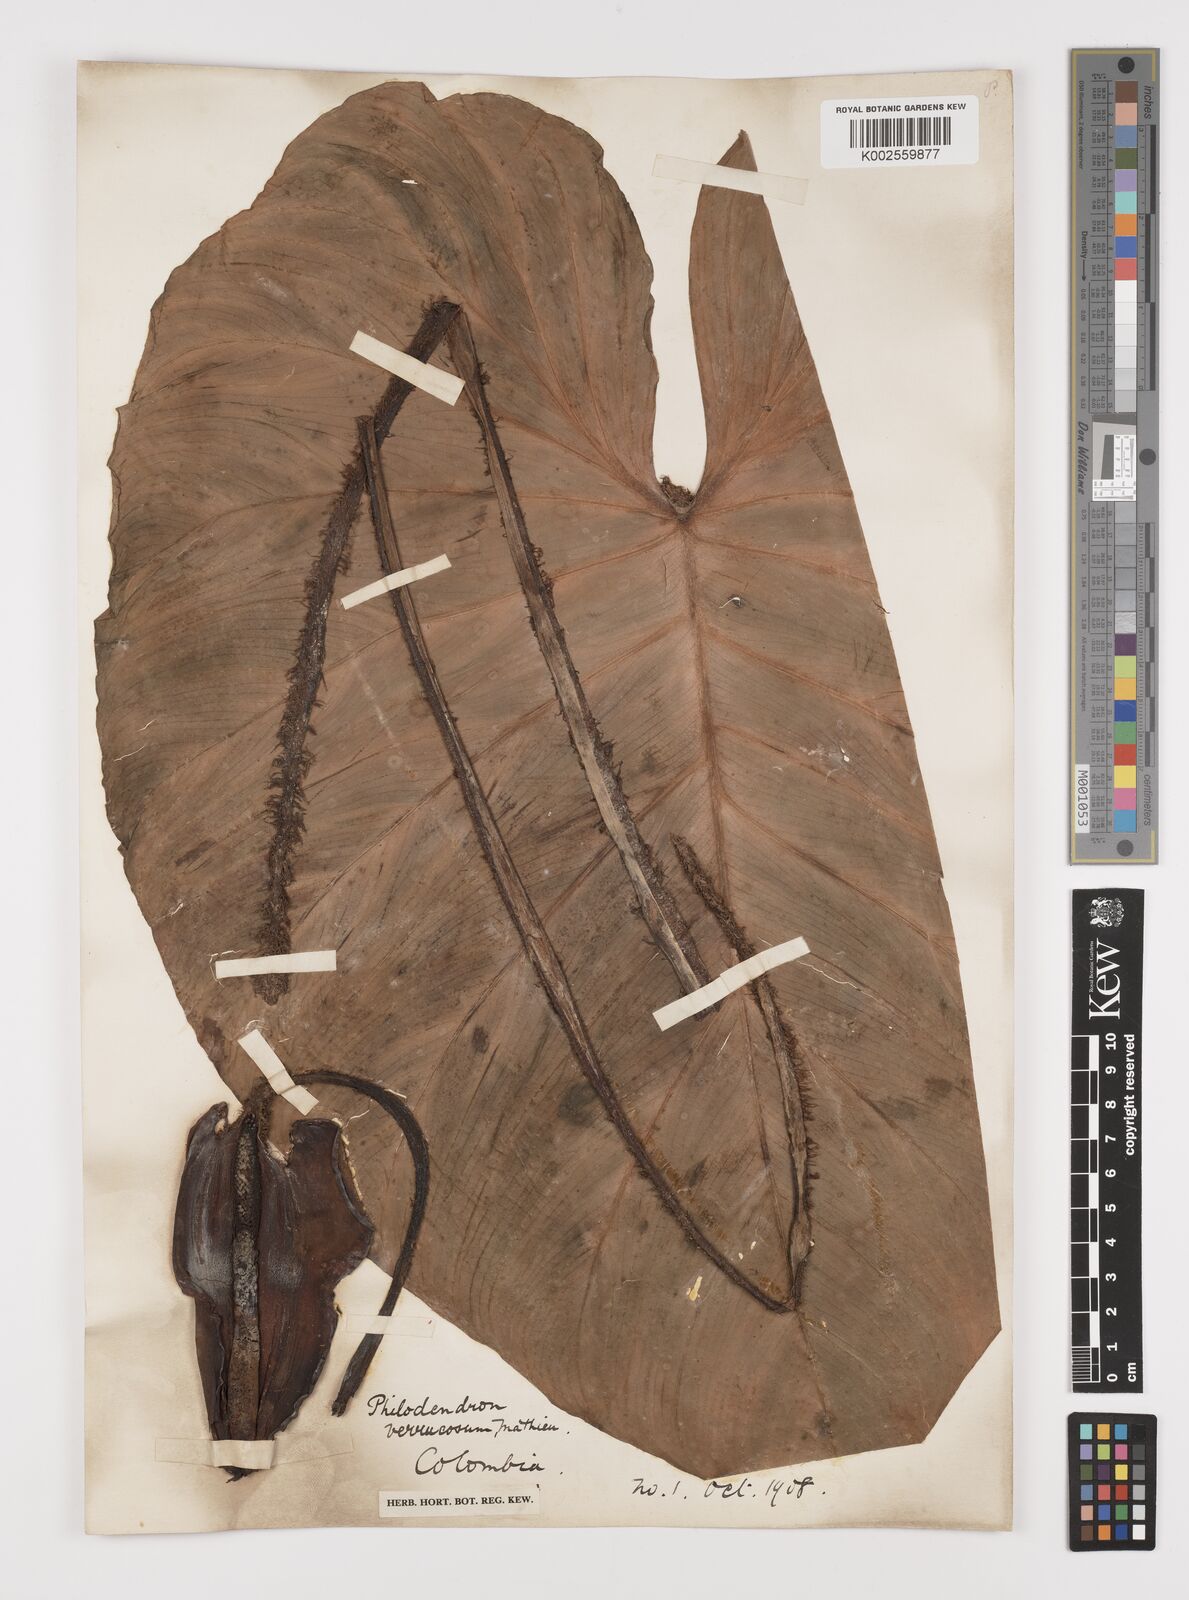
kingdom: Plantae
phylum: Tracheophyta
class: Liliopsida
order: Alismatales
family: Araceae
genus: Philodendron
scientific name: Philodendron verrucosum
